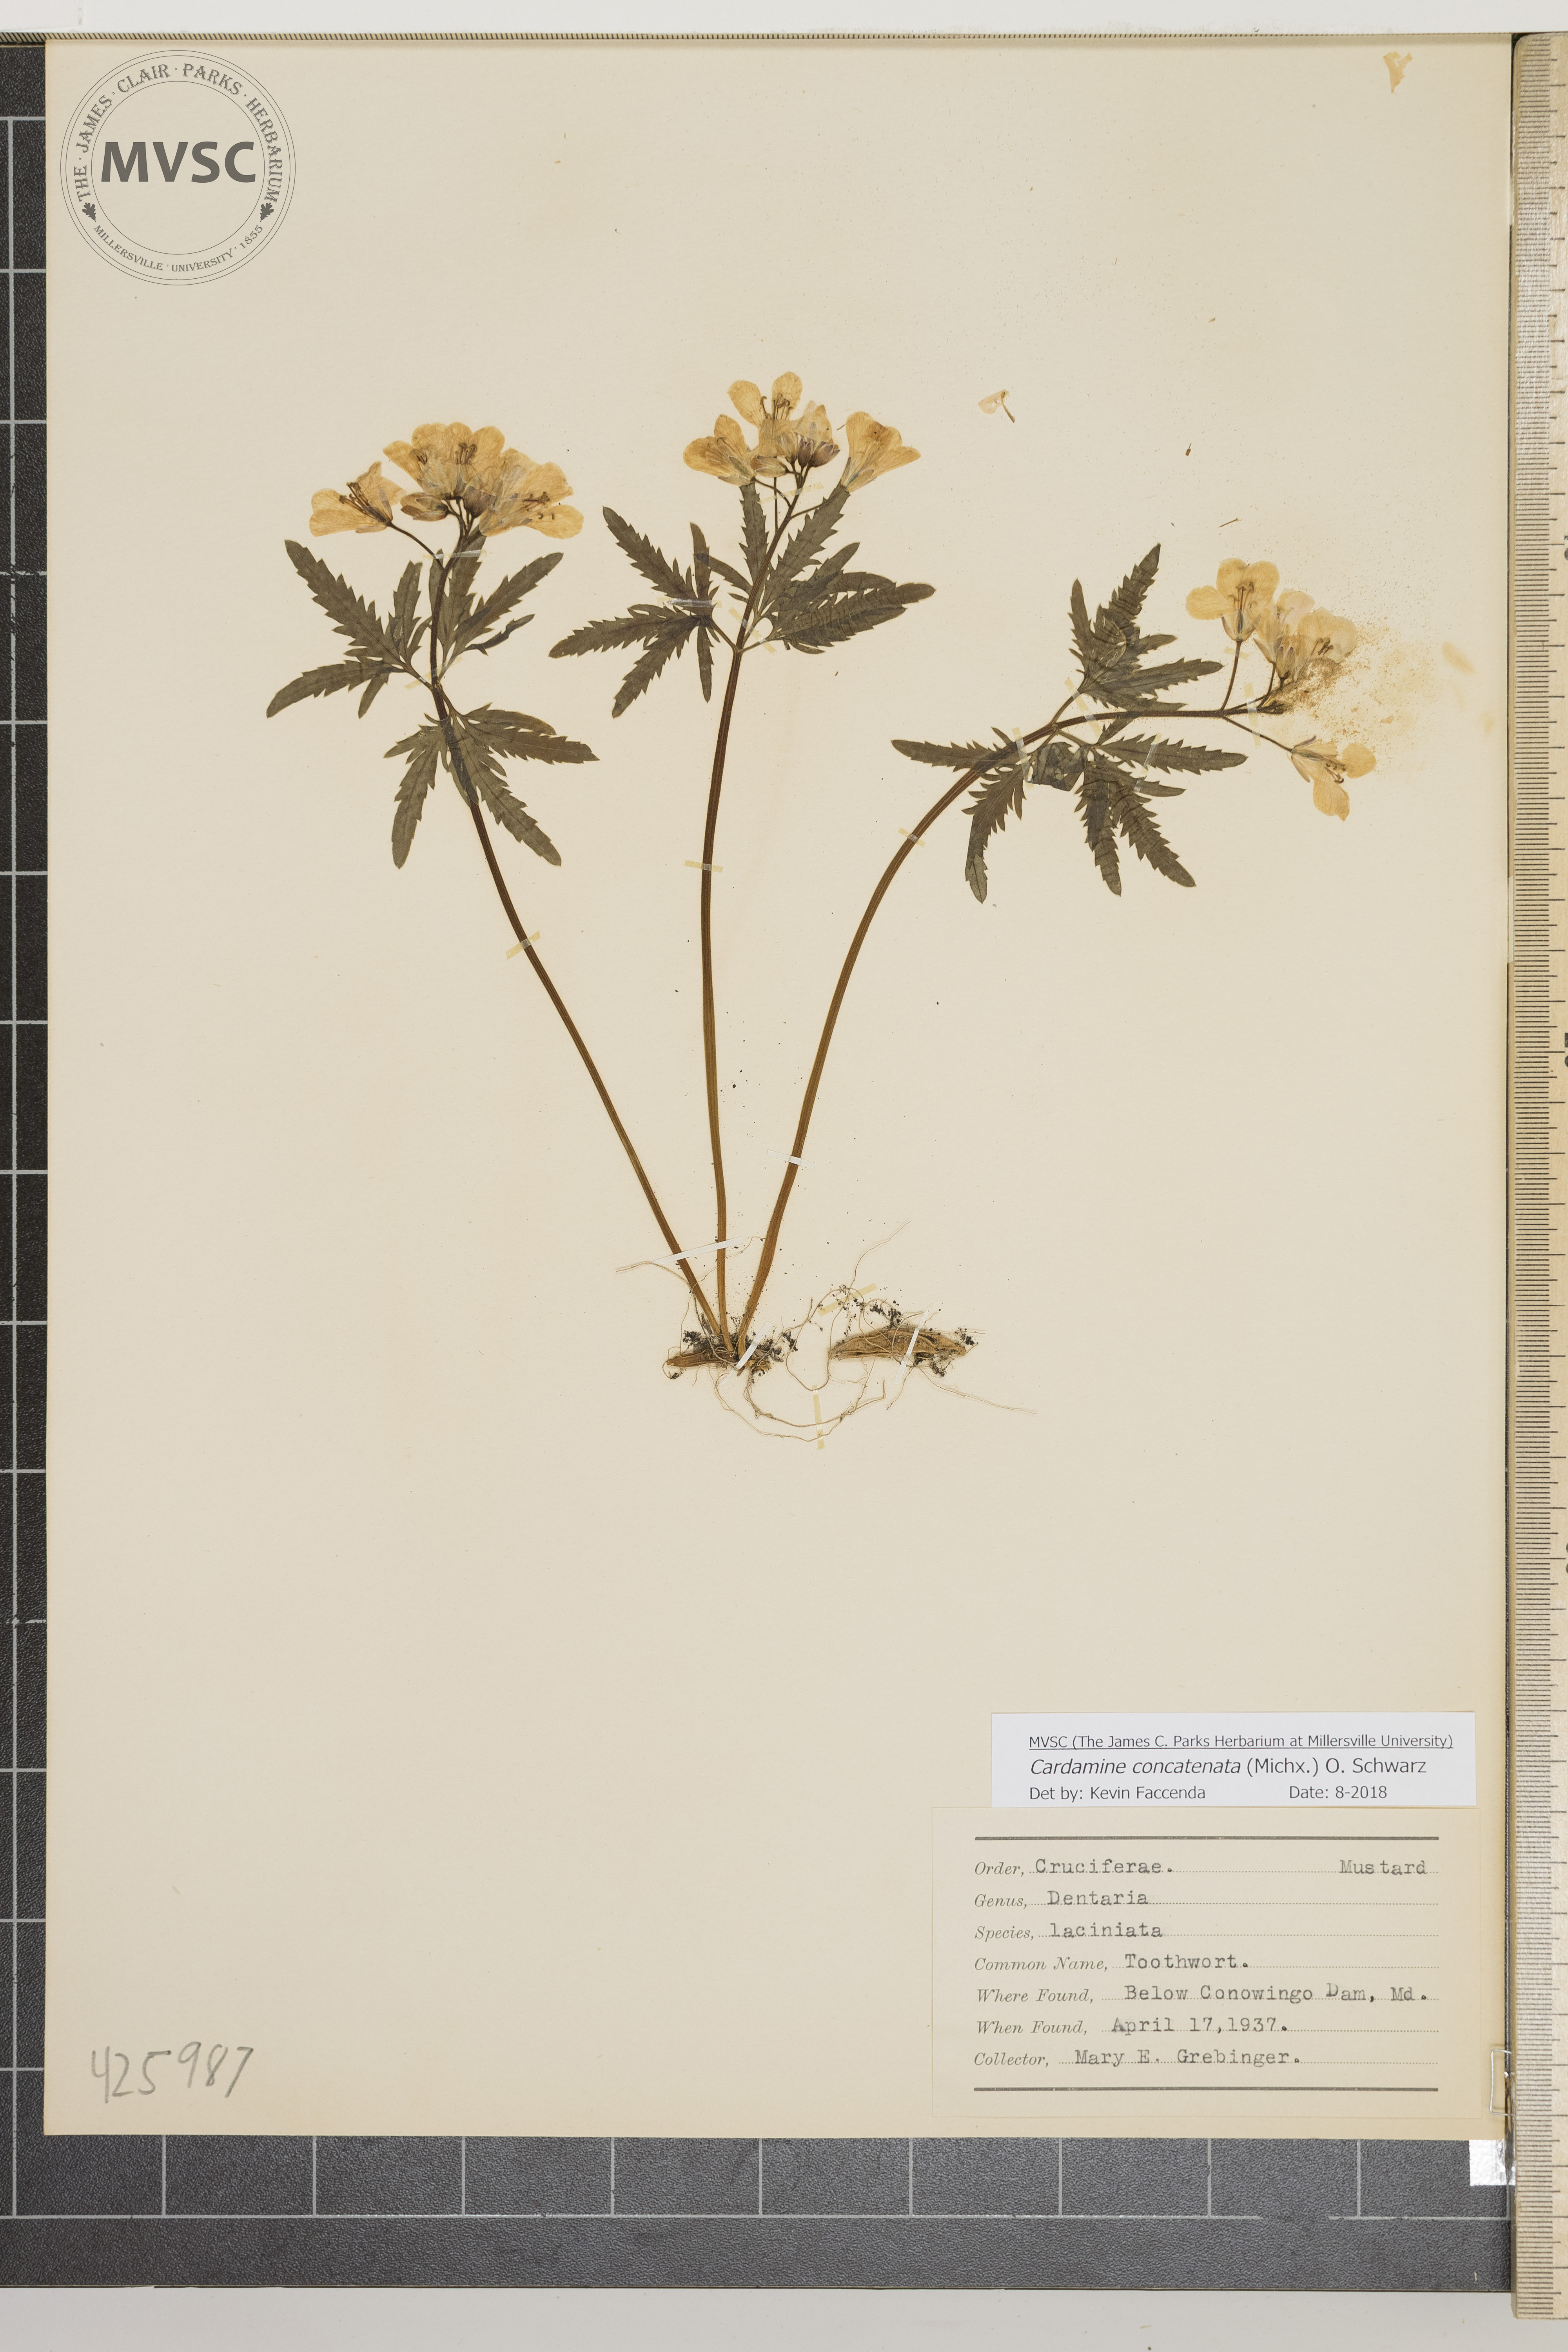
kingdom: Plantae
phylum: Tracheophyta
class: Magnoliopsida
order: Brassicales
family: Brassicaceae
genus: Cardamine
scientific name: Cardamine concatenata
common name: Toothwort
